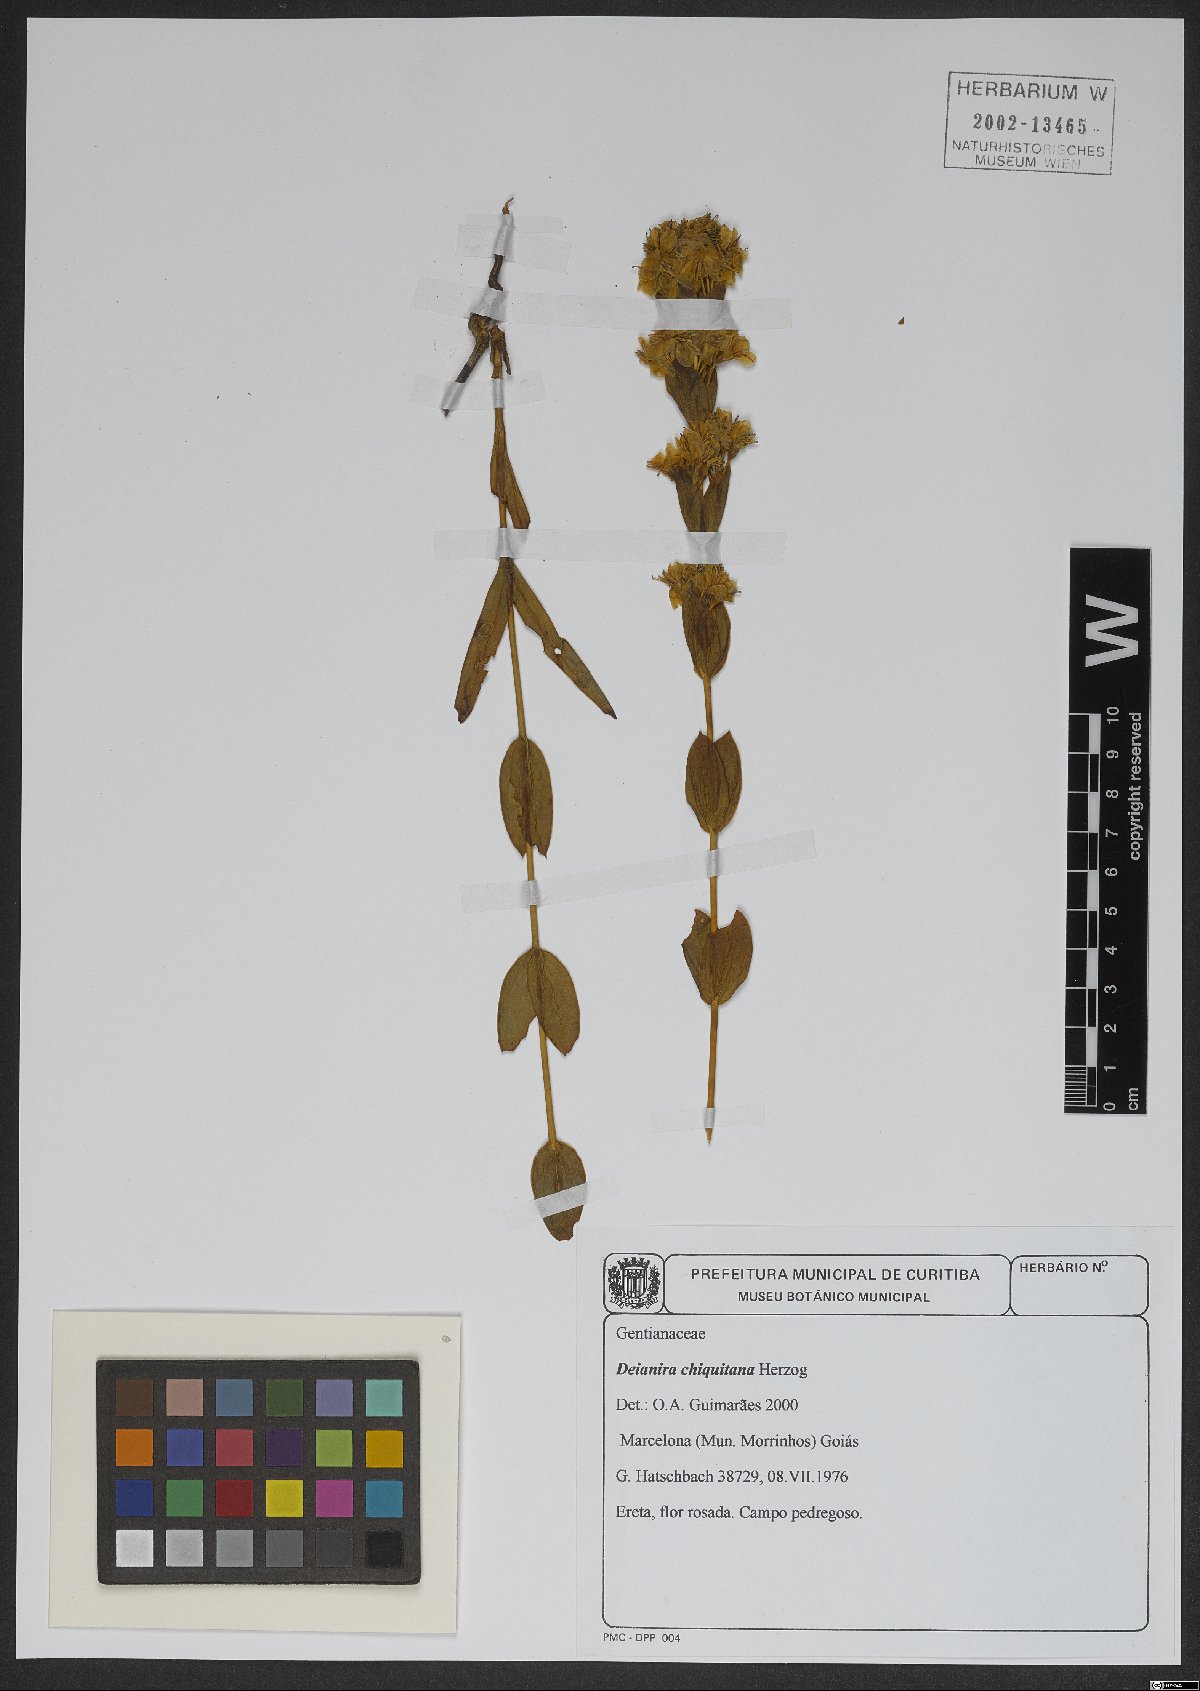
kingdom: Plantae
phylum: Tracheophyta
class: Magnoliopsida
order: Gentianales
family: Gentianaceae
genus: Deianira
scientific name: Deianira chiquitana
